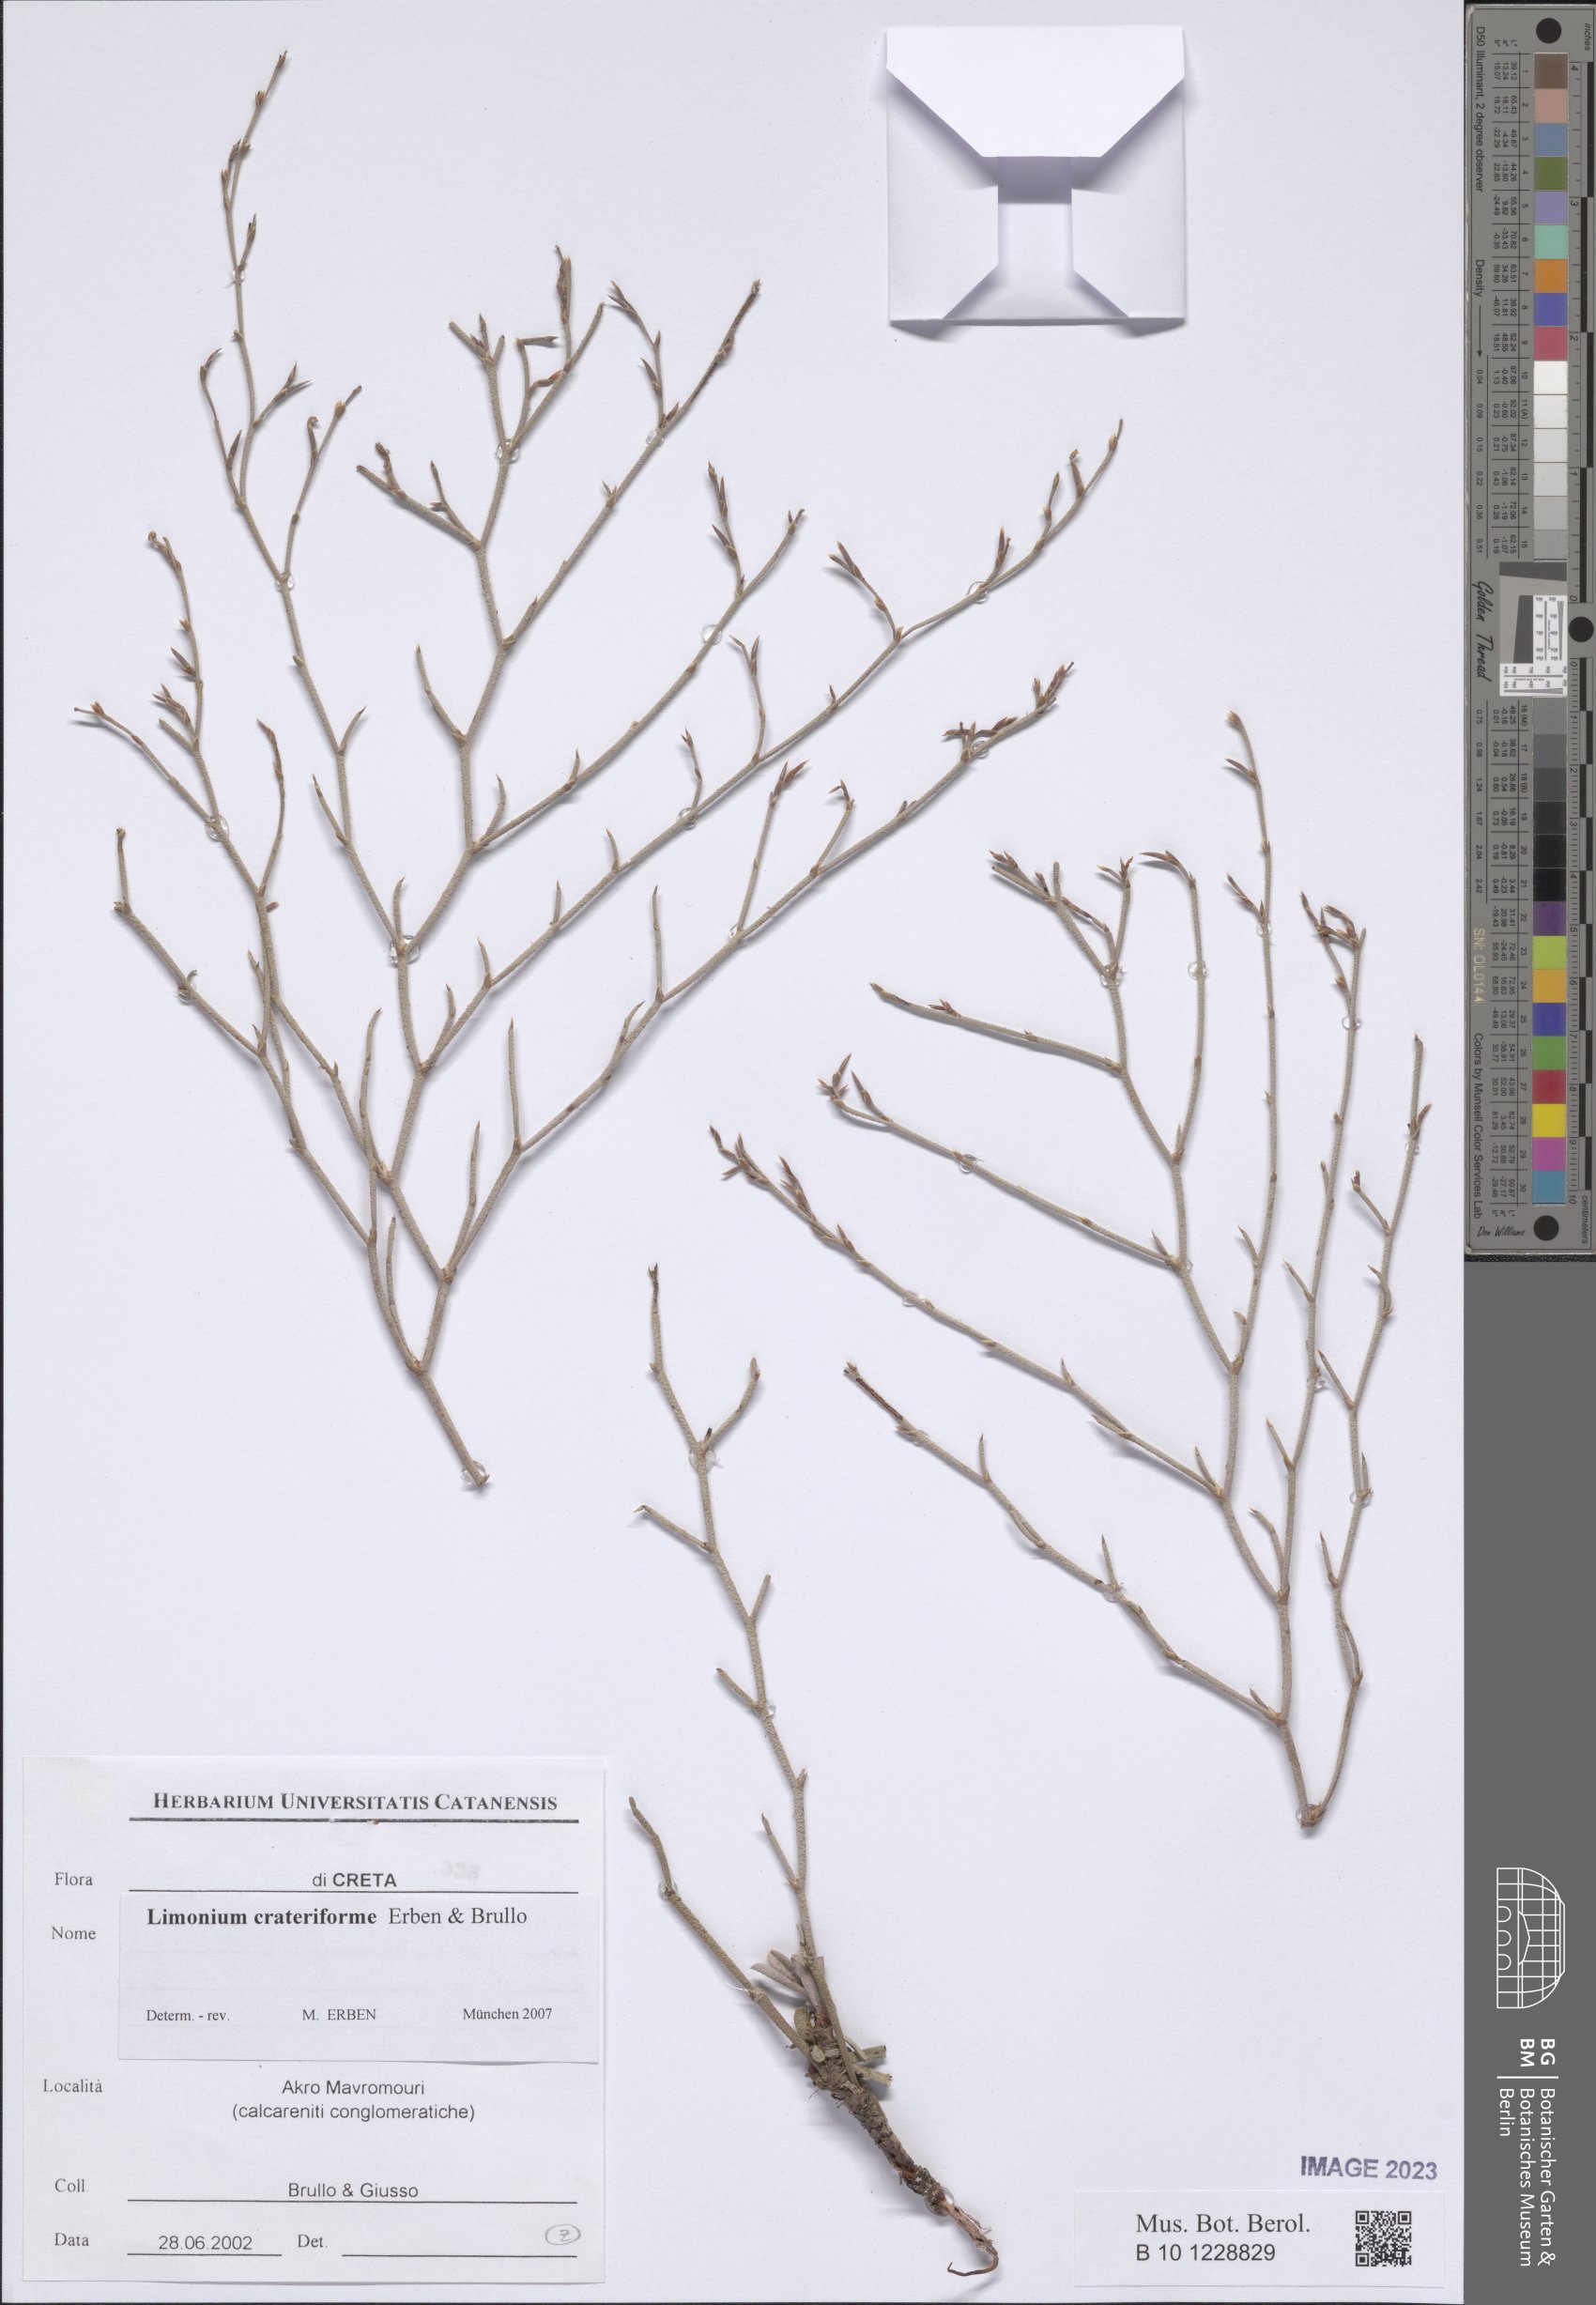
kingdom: Plantae
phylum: Tracheophyta
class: Magnoliopsida
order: Caryophyllales
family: Plumbaginaceae
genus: Limonium
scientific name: Limonium crateriforme
